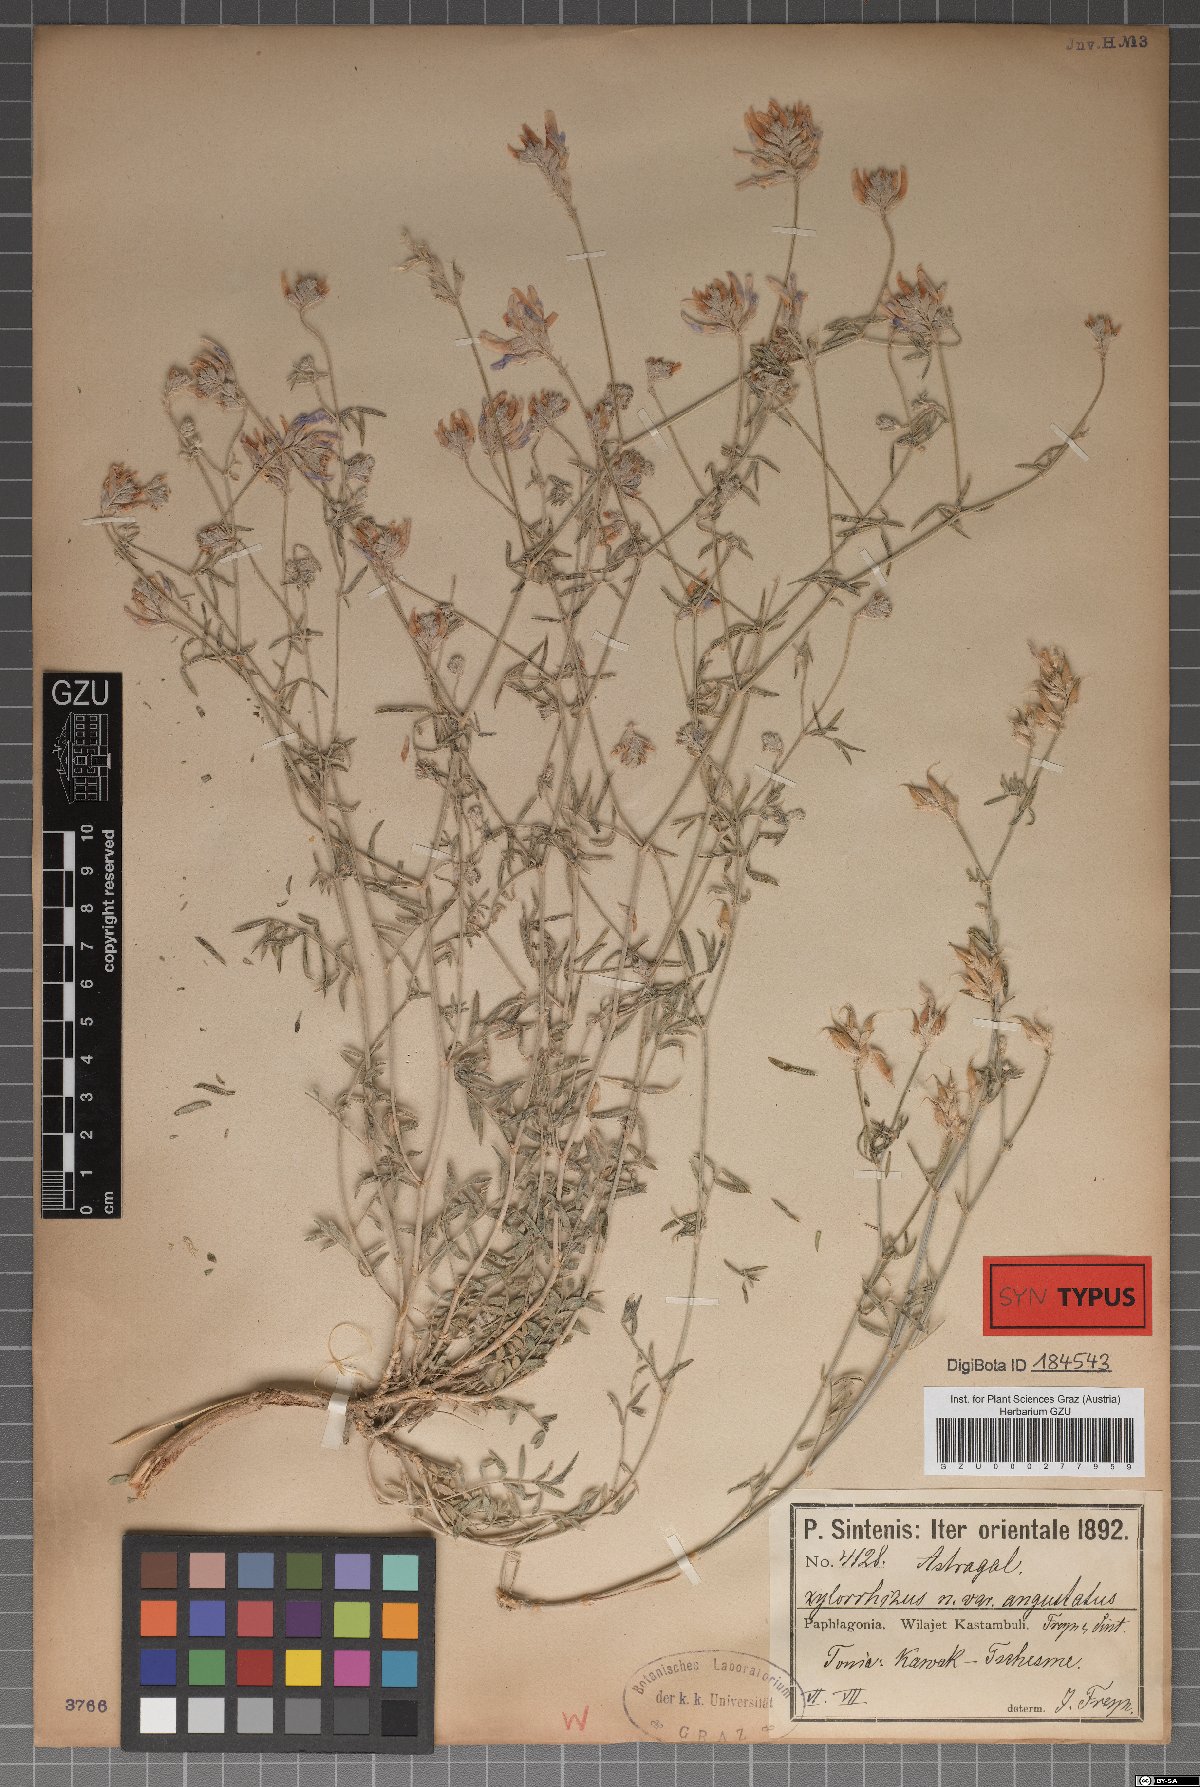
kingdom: Plantae
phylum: Tracheophyta
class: Magnoliopsida
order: Fabales
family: Fabaceae
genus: Astragalus
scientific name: Astragalus aduncus
